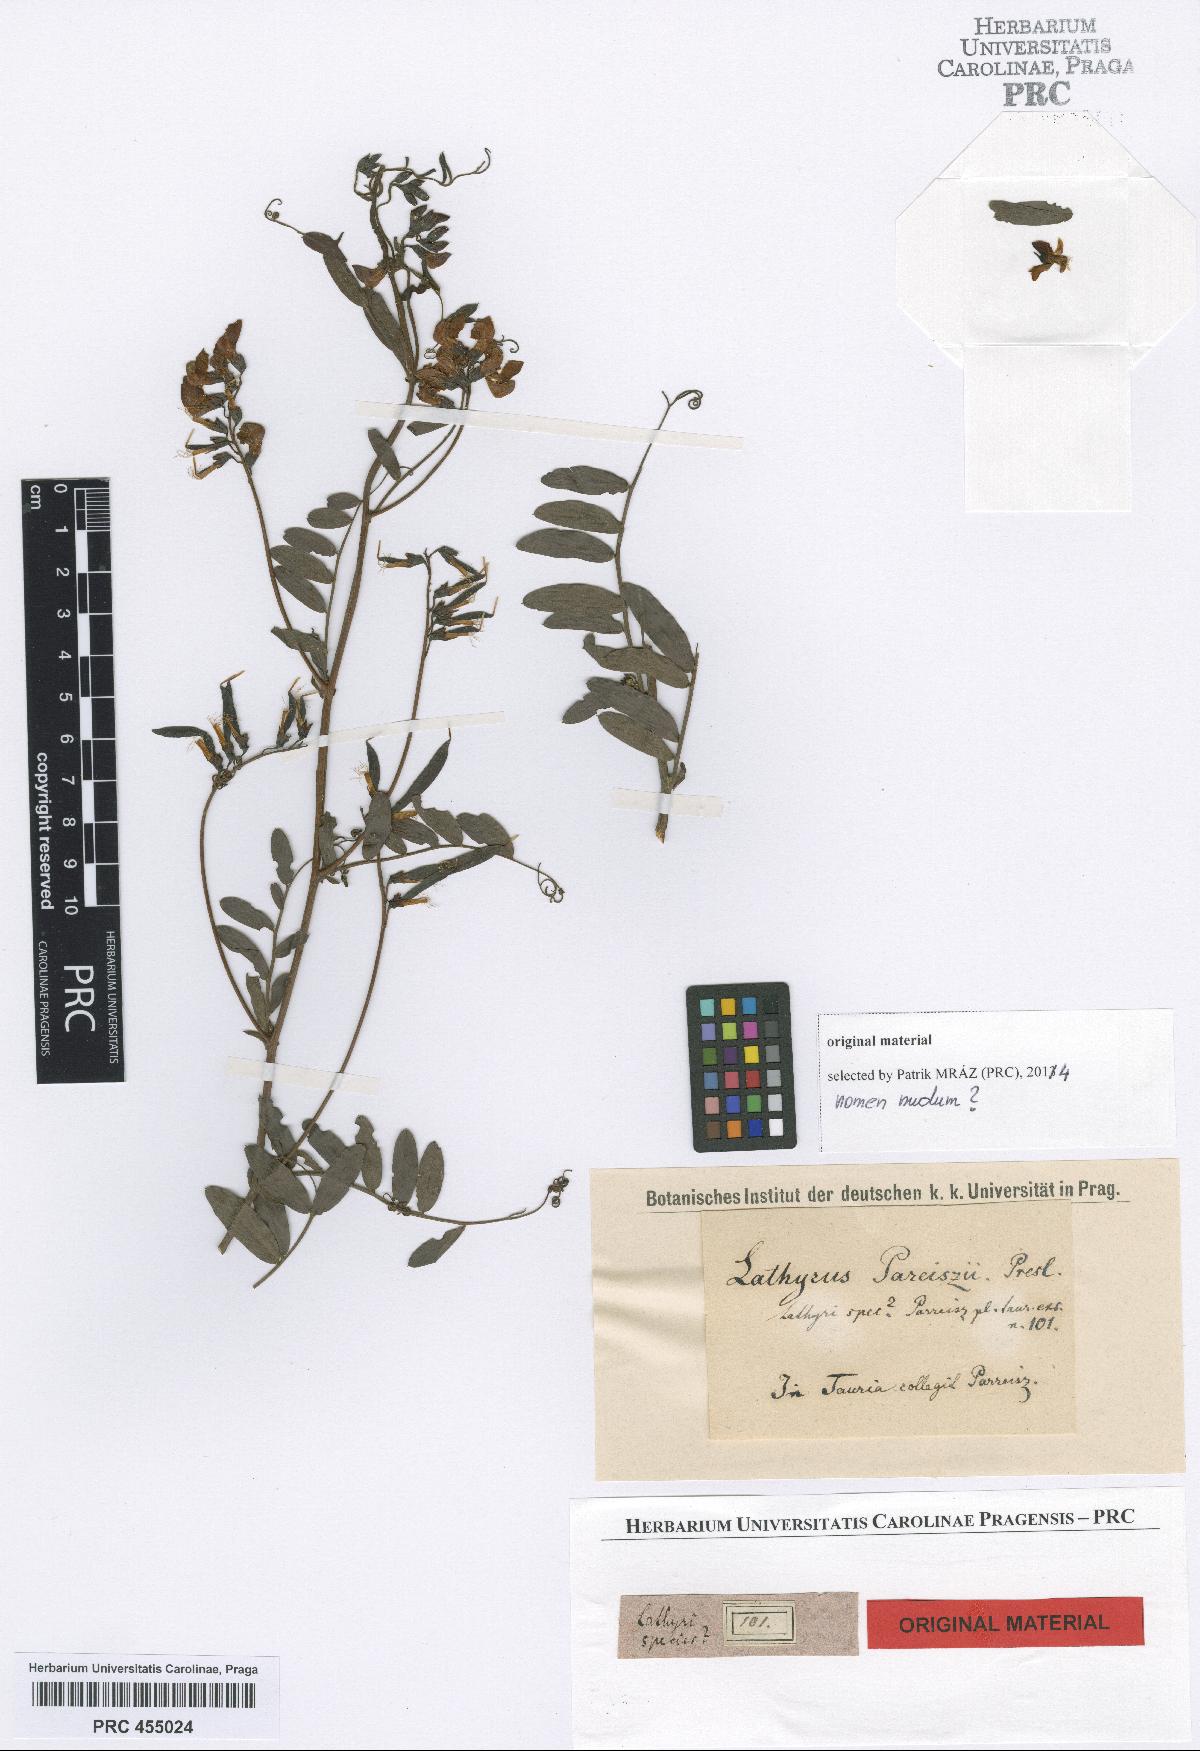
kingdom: Plantae
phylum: Tracheophyta
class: Magnoliopsida
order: Fabales
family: Fabaceae
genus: Lathyrus
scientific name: Lathyrus parreiszii
